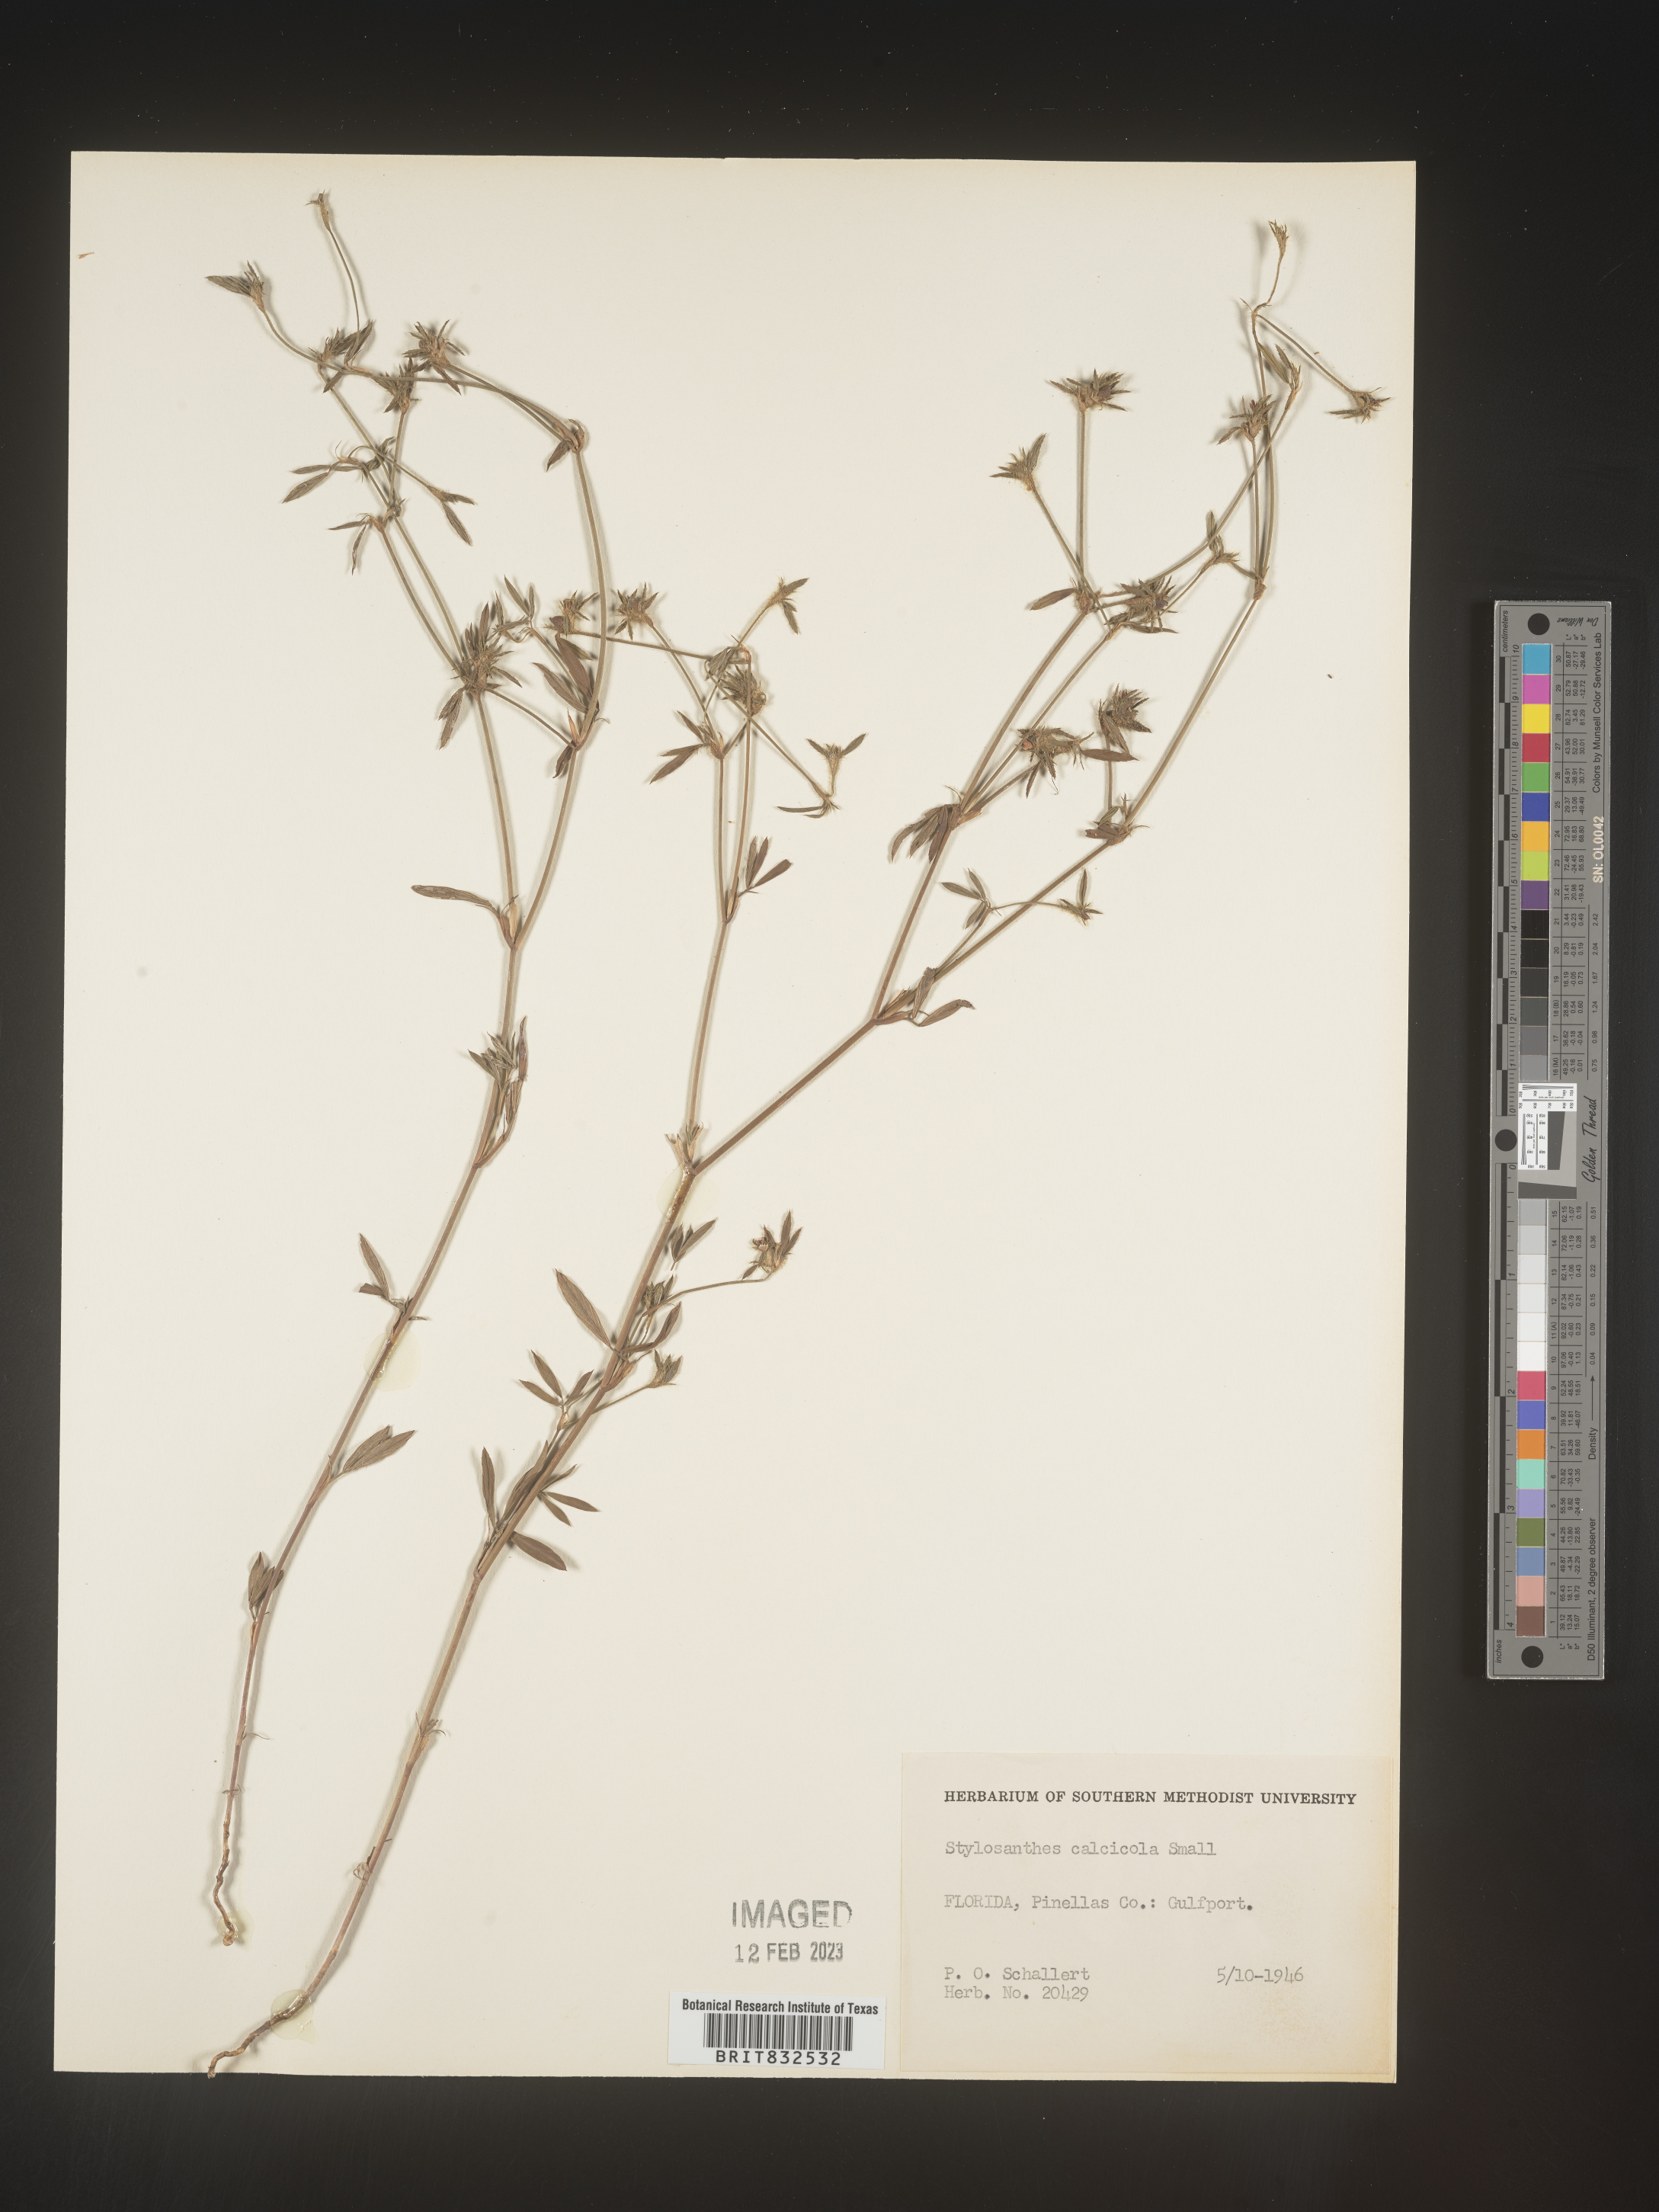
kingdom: Plantae
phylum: Tracheophyta
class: Magnoliopsida
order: Fabales
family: Fabaceae
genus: Stylosanthes
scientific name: Stylosanthes
